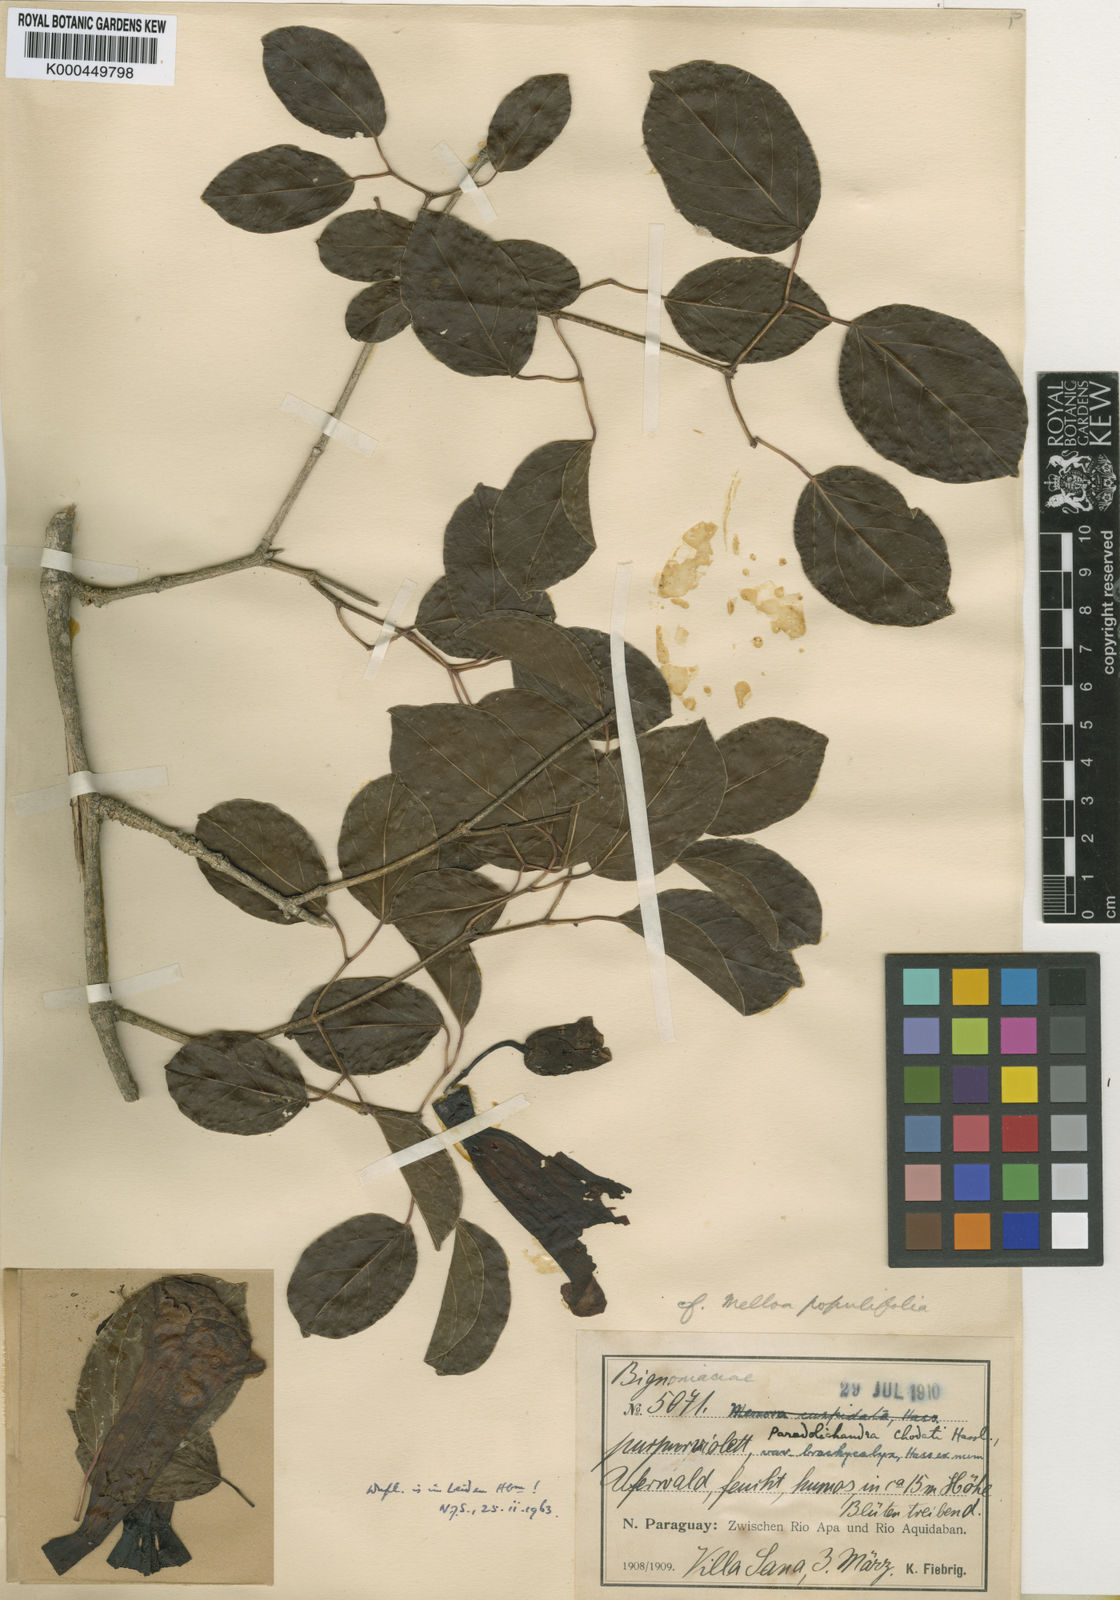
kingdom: Plantae
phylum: Tracheophyta
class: Magnoliopsida
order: Lamiales
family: Bignoniaceae
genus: Dolichandra
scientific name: Dolichandra chodatii
